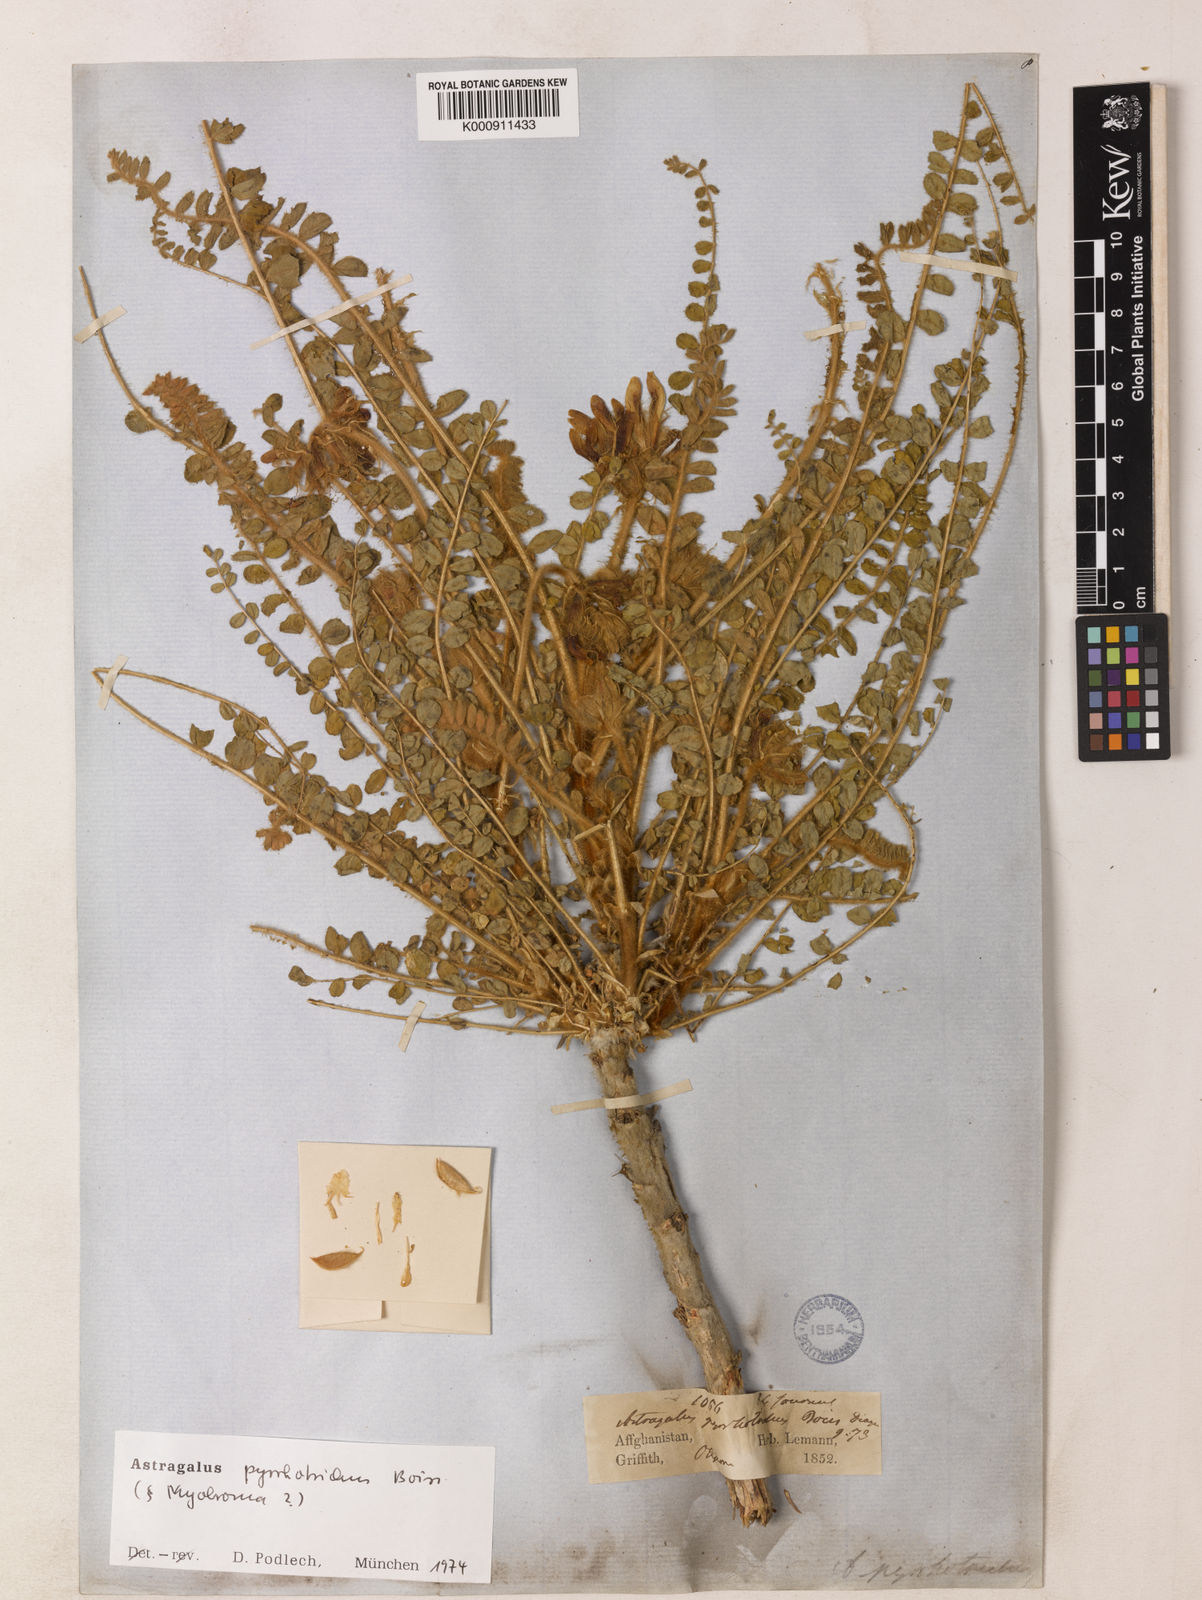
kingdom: Plantae
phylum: Tracheophyta
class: Magnoliopsida
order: Fabales
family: Fabaceae
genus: Astragalus
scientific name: Astragalus pyrrhotrichus
